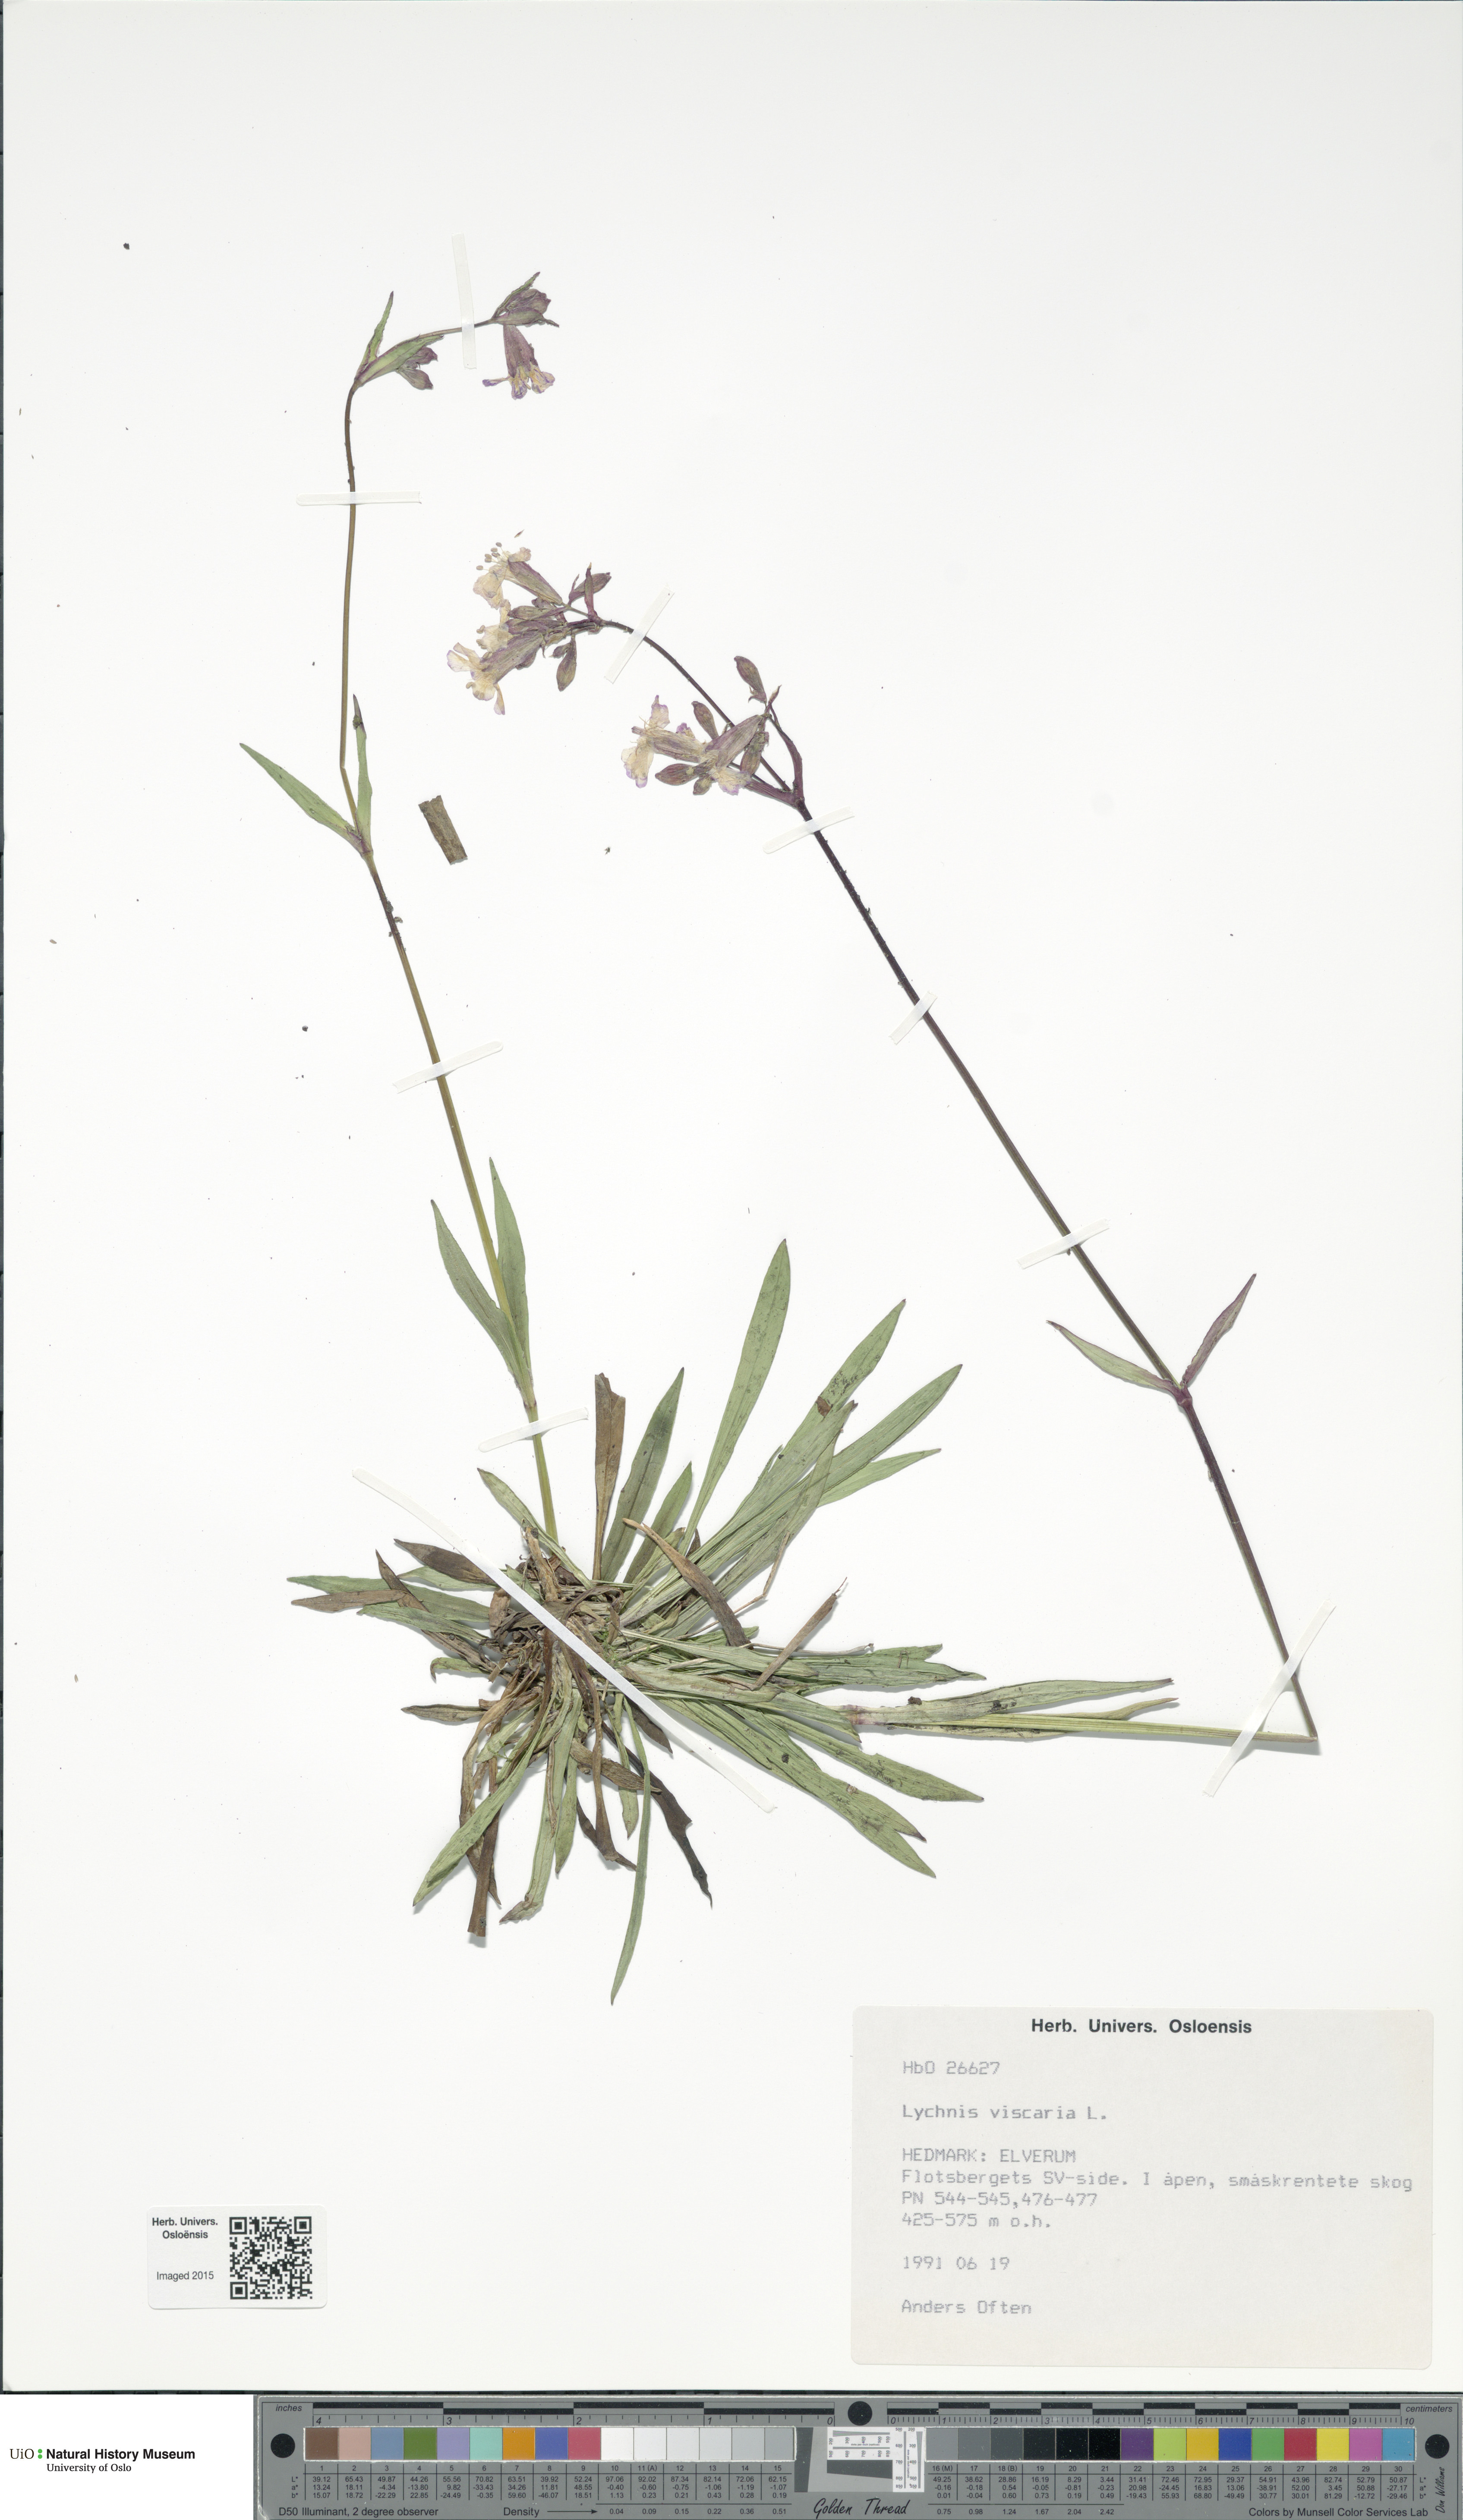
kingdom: Plantae
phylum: Tracheophyta
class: Magnoliopsida
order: Caryophyllales
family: Caryophyllaceae
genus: Viscaria
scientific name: Viscaria vulgaris
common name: Clammy campion
